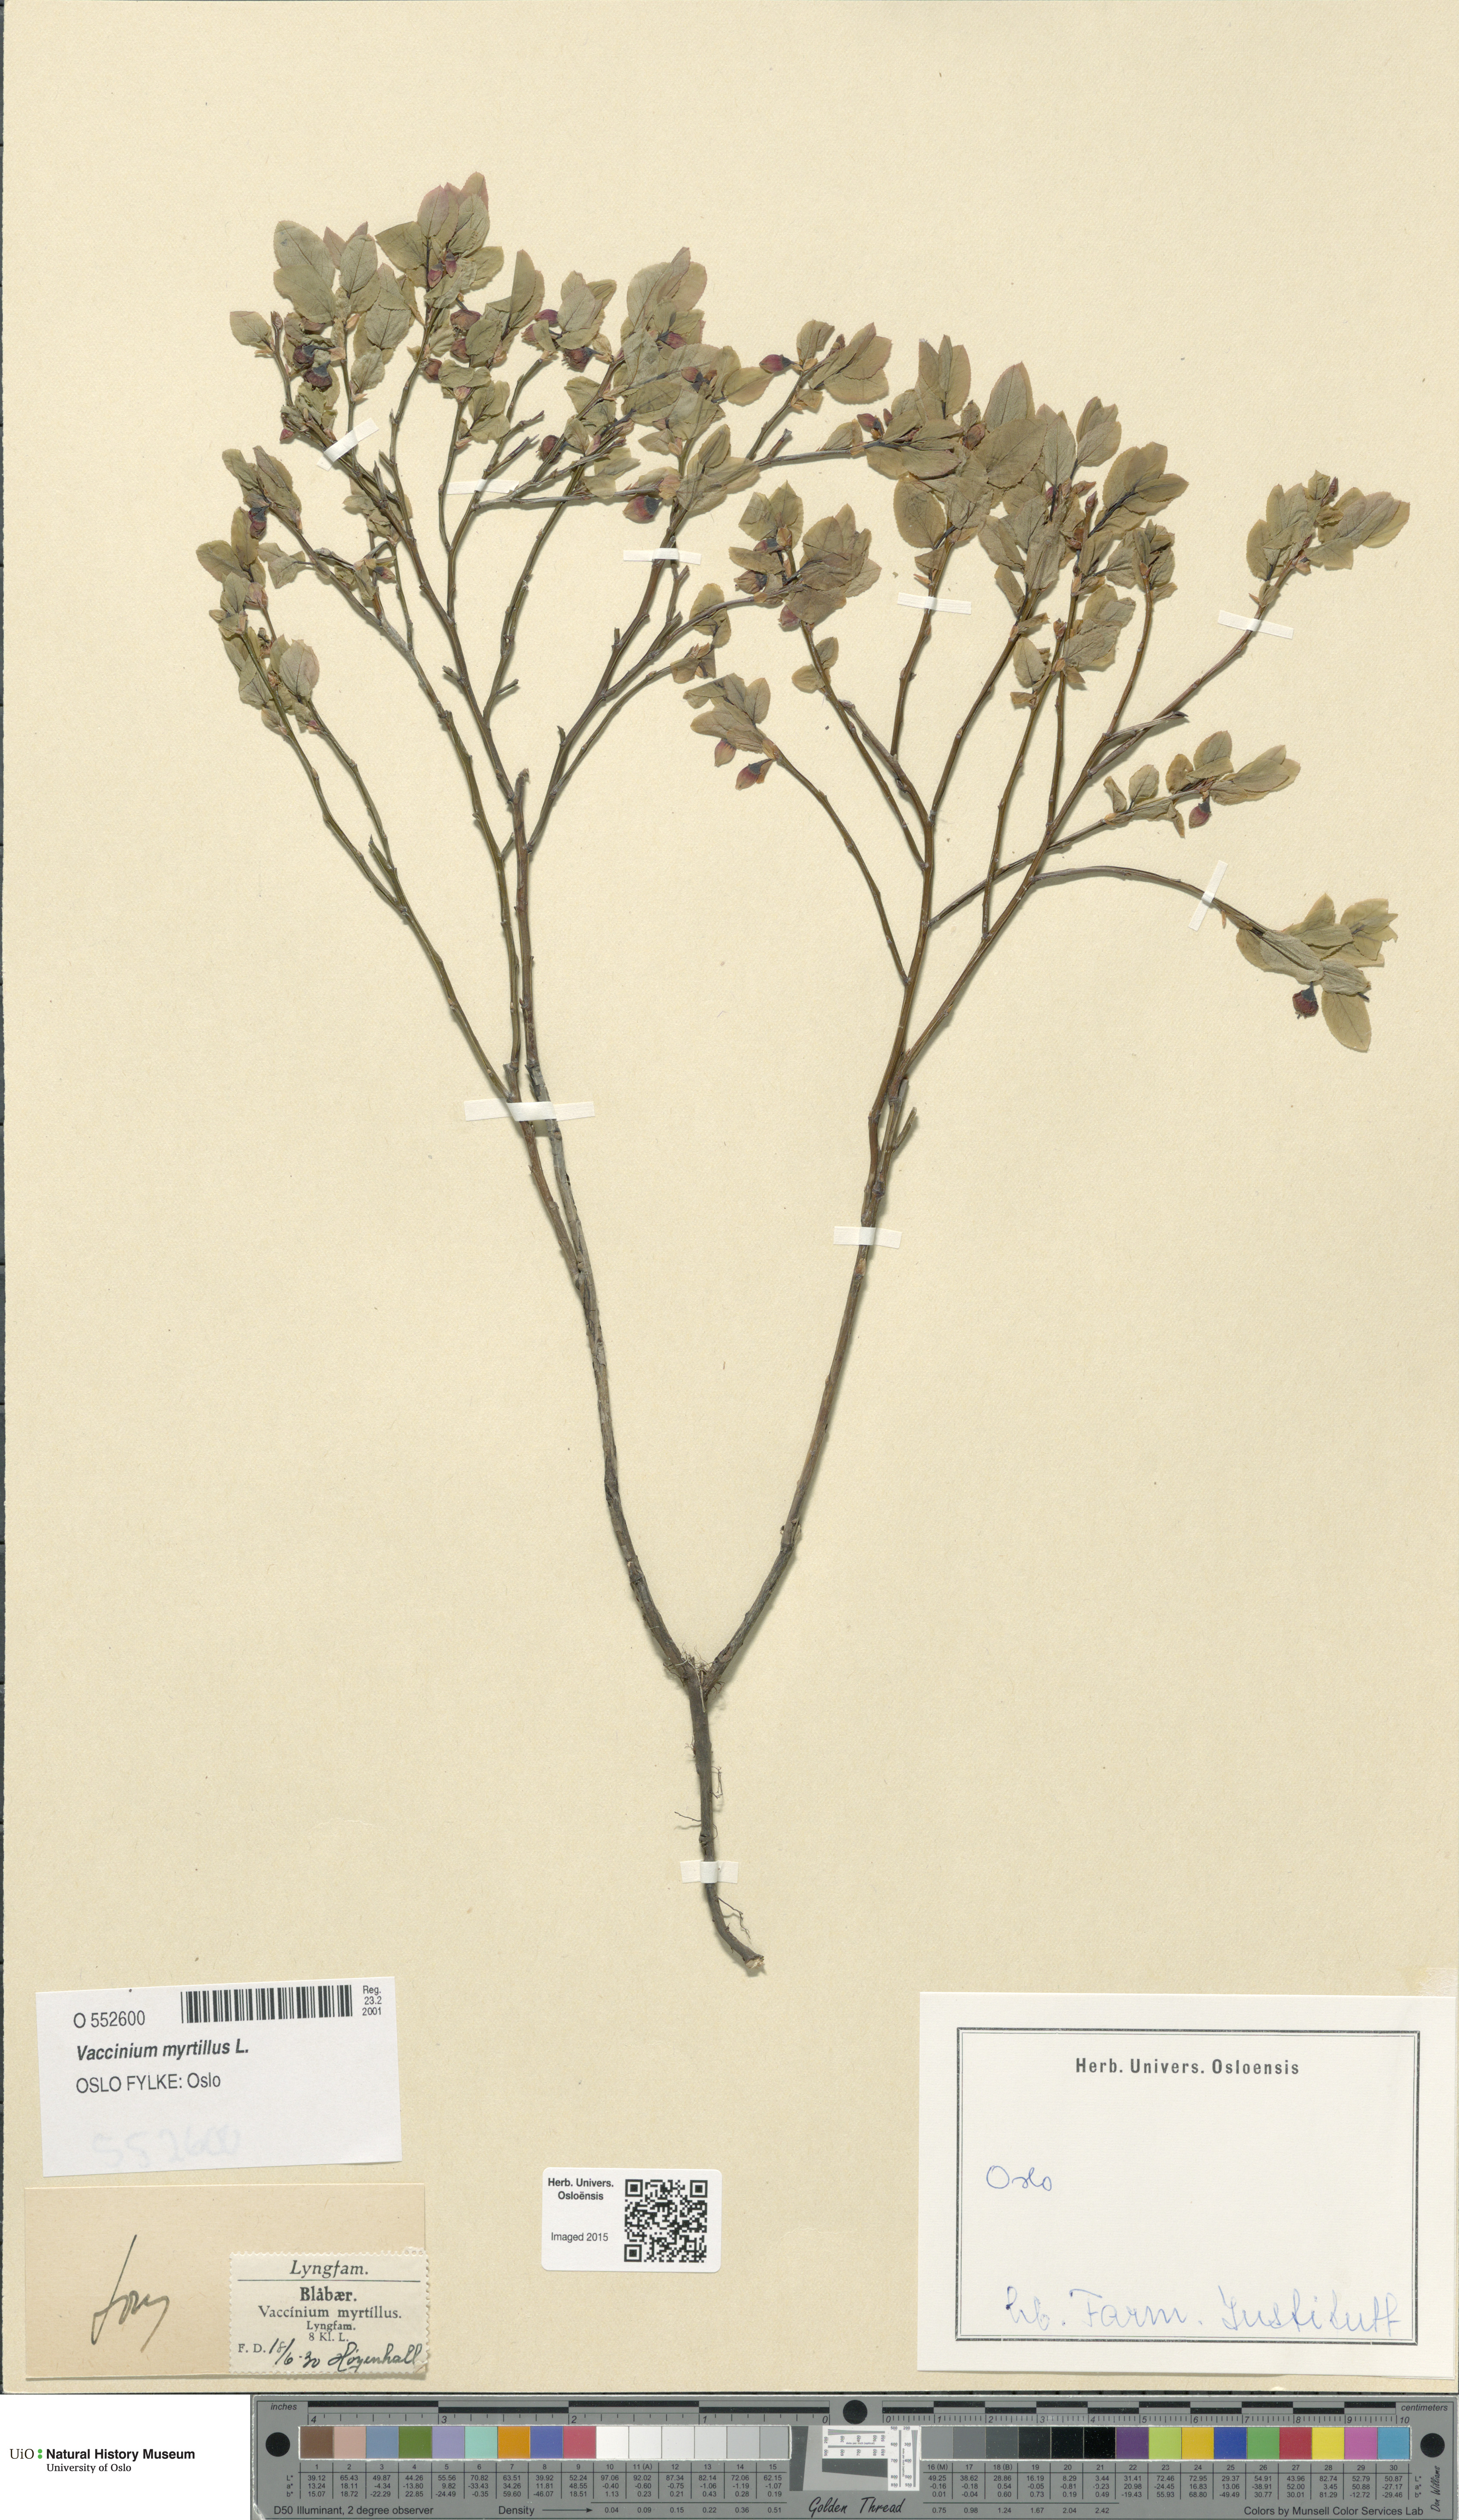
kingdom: Plantae
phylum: Tracheophyta
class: Magnoliopsida
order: Ericales
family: Ericaceae
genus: Vaccinium
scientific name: Vaccinium myrtillus
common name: Bilberry
